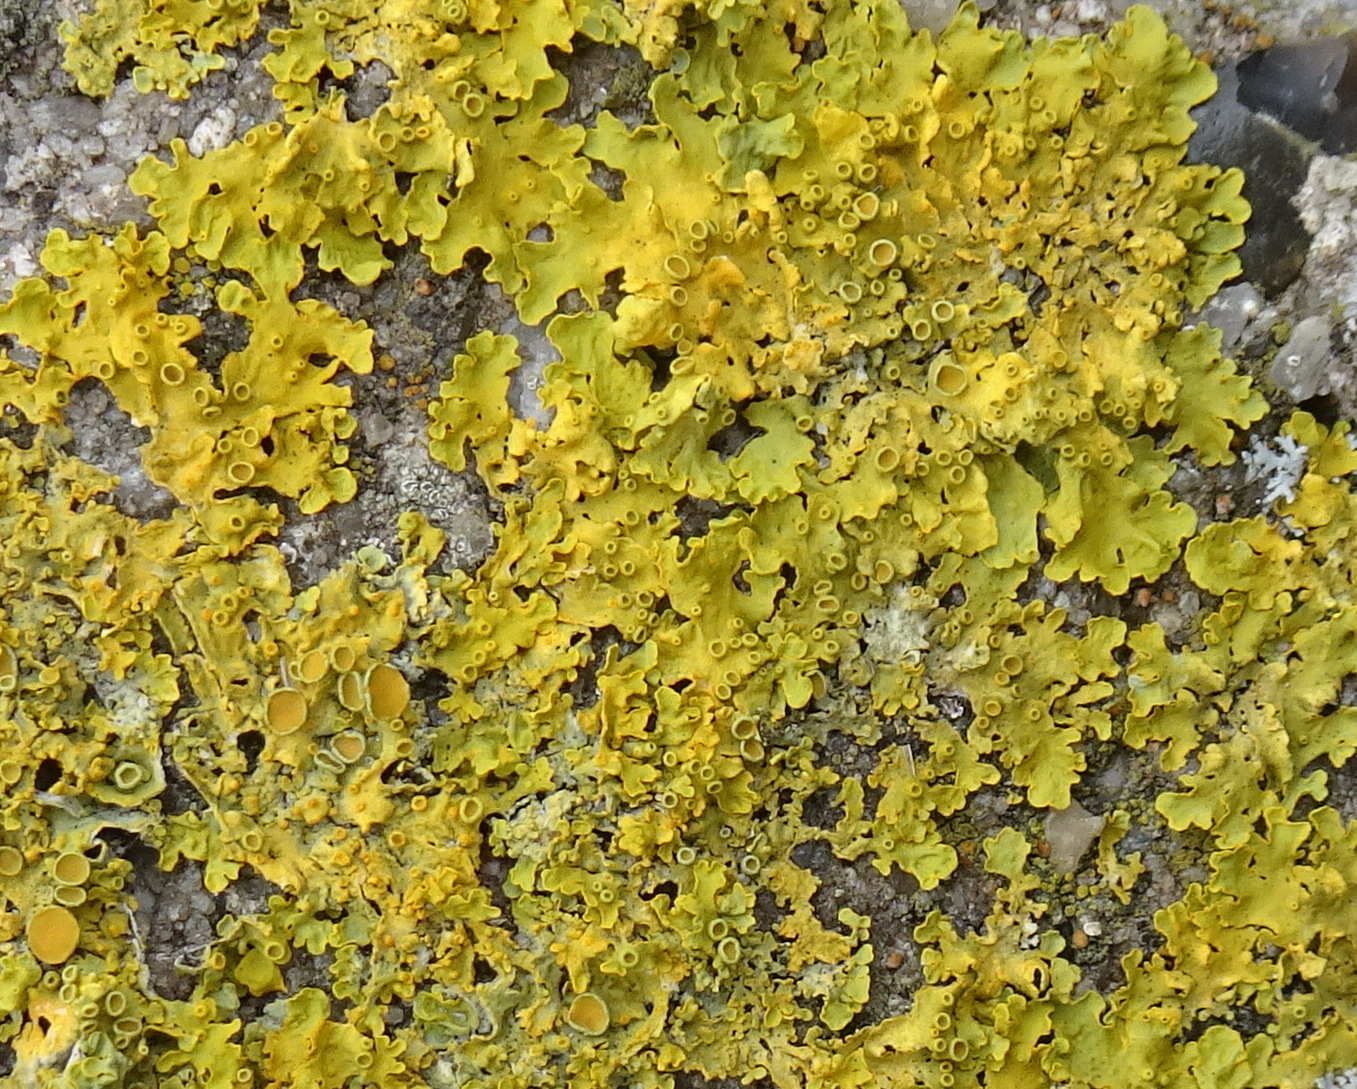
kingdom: Fungi
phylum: Ascomycota
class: Lecanoromycetes
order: Teloschistales
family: Teloschistaceae
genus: Xanthoria
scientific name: Xanthoria parietina
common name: almindelig væggelav
